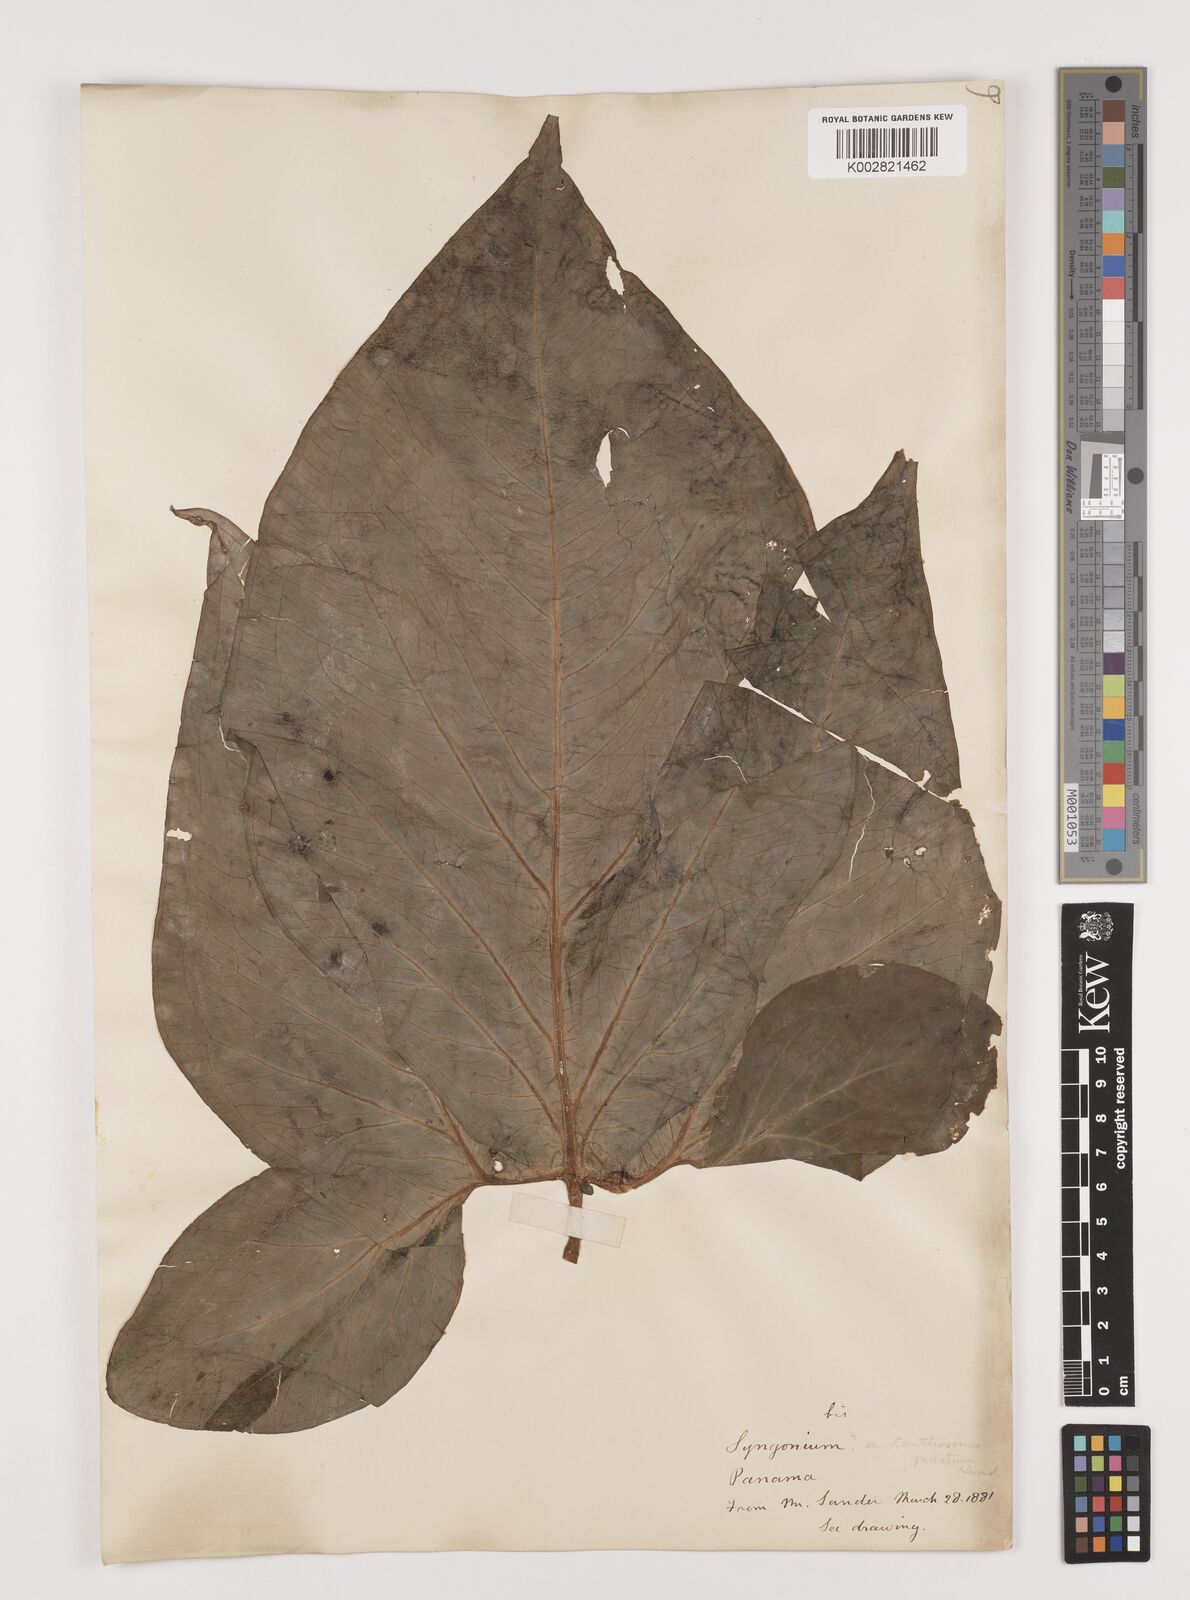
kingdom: Plantae
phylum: Tracheophyta
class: Liliopsida
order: Alismatales
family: Araceae
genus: Xanthosoma
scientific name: Xanthosoma wendlandii
